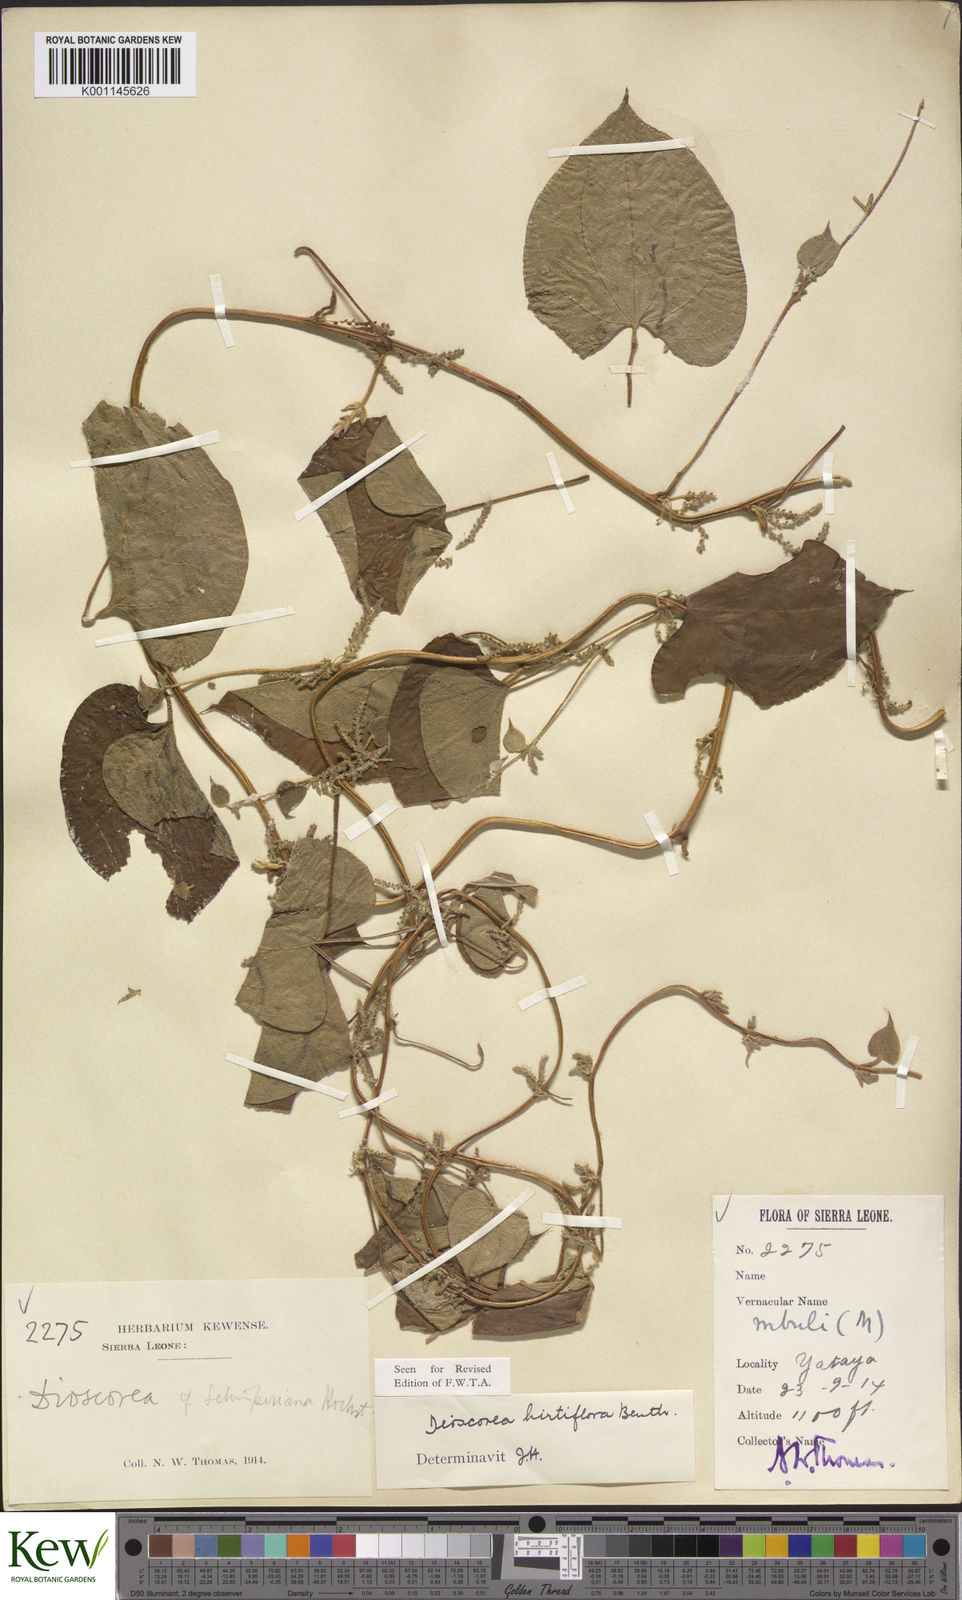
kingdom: Plantae
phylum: Tracheophyta
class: Liliopsida
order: Dioscoreales
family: Dioscoreaceae
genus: Dioscorea
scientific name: Dioscorea hirtiflora
